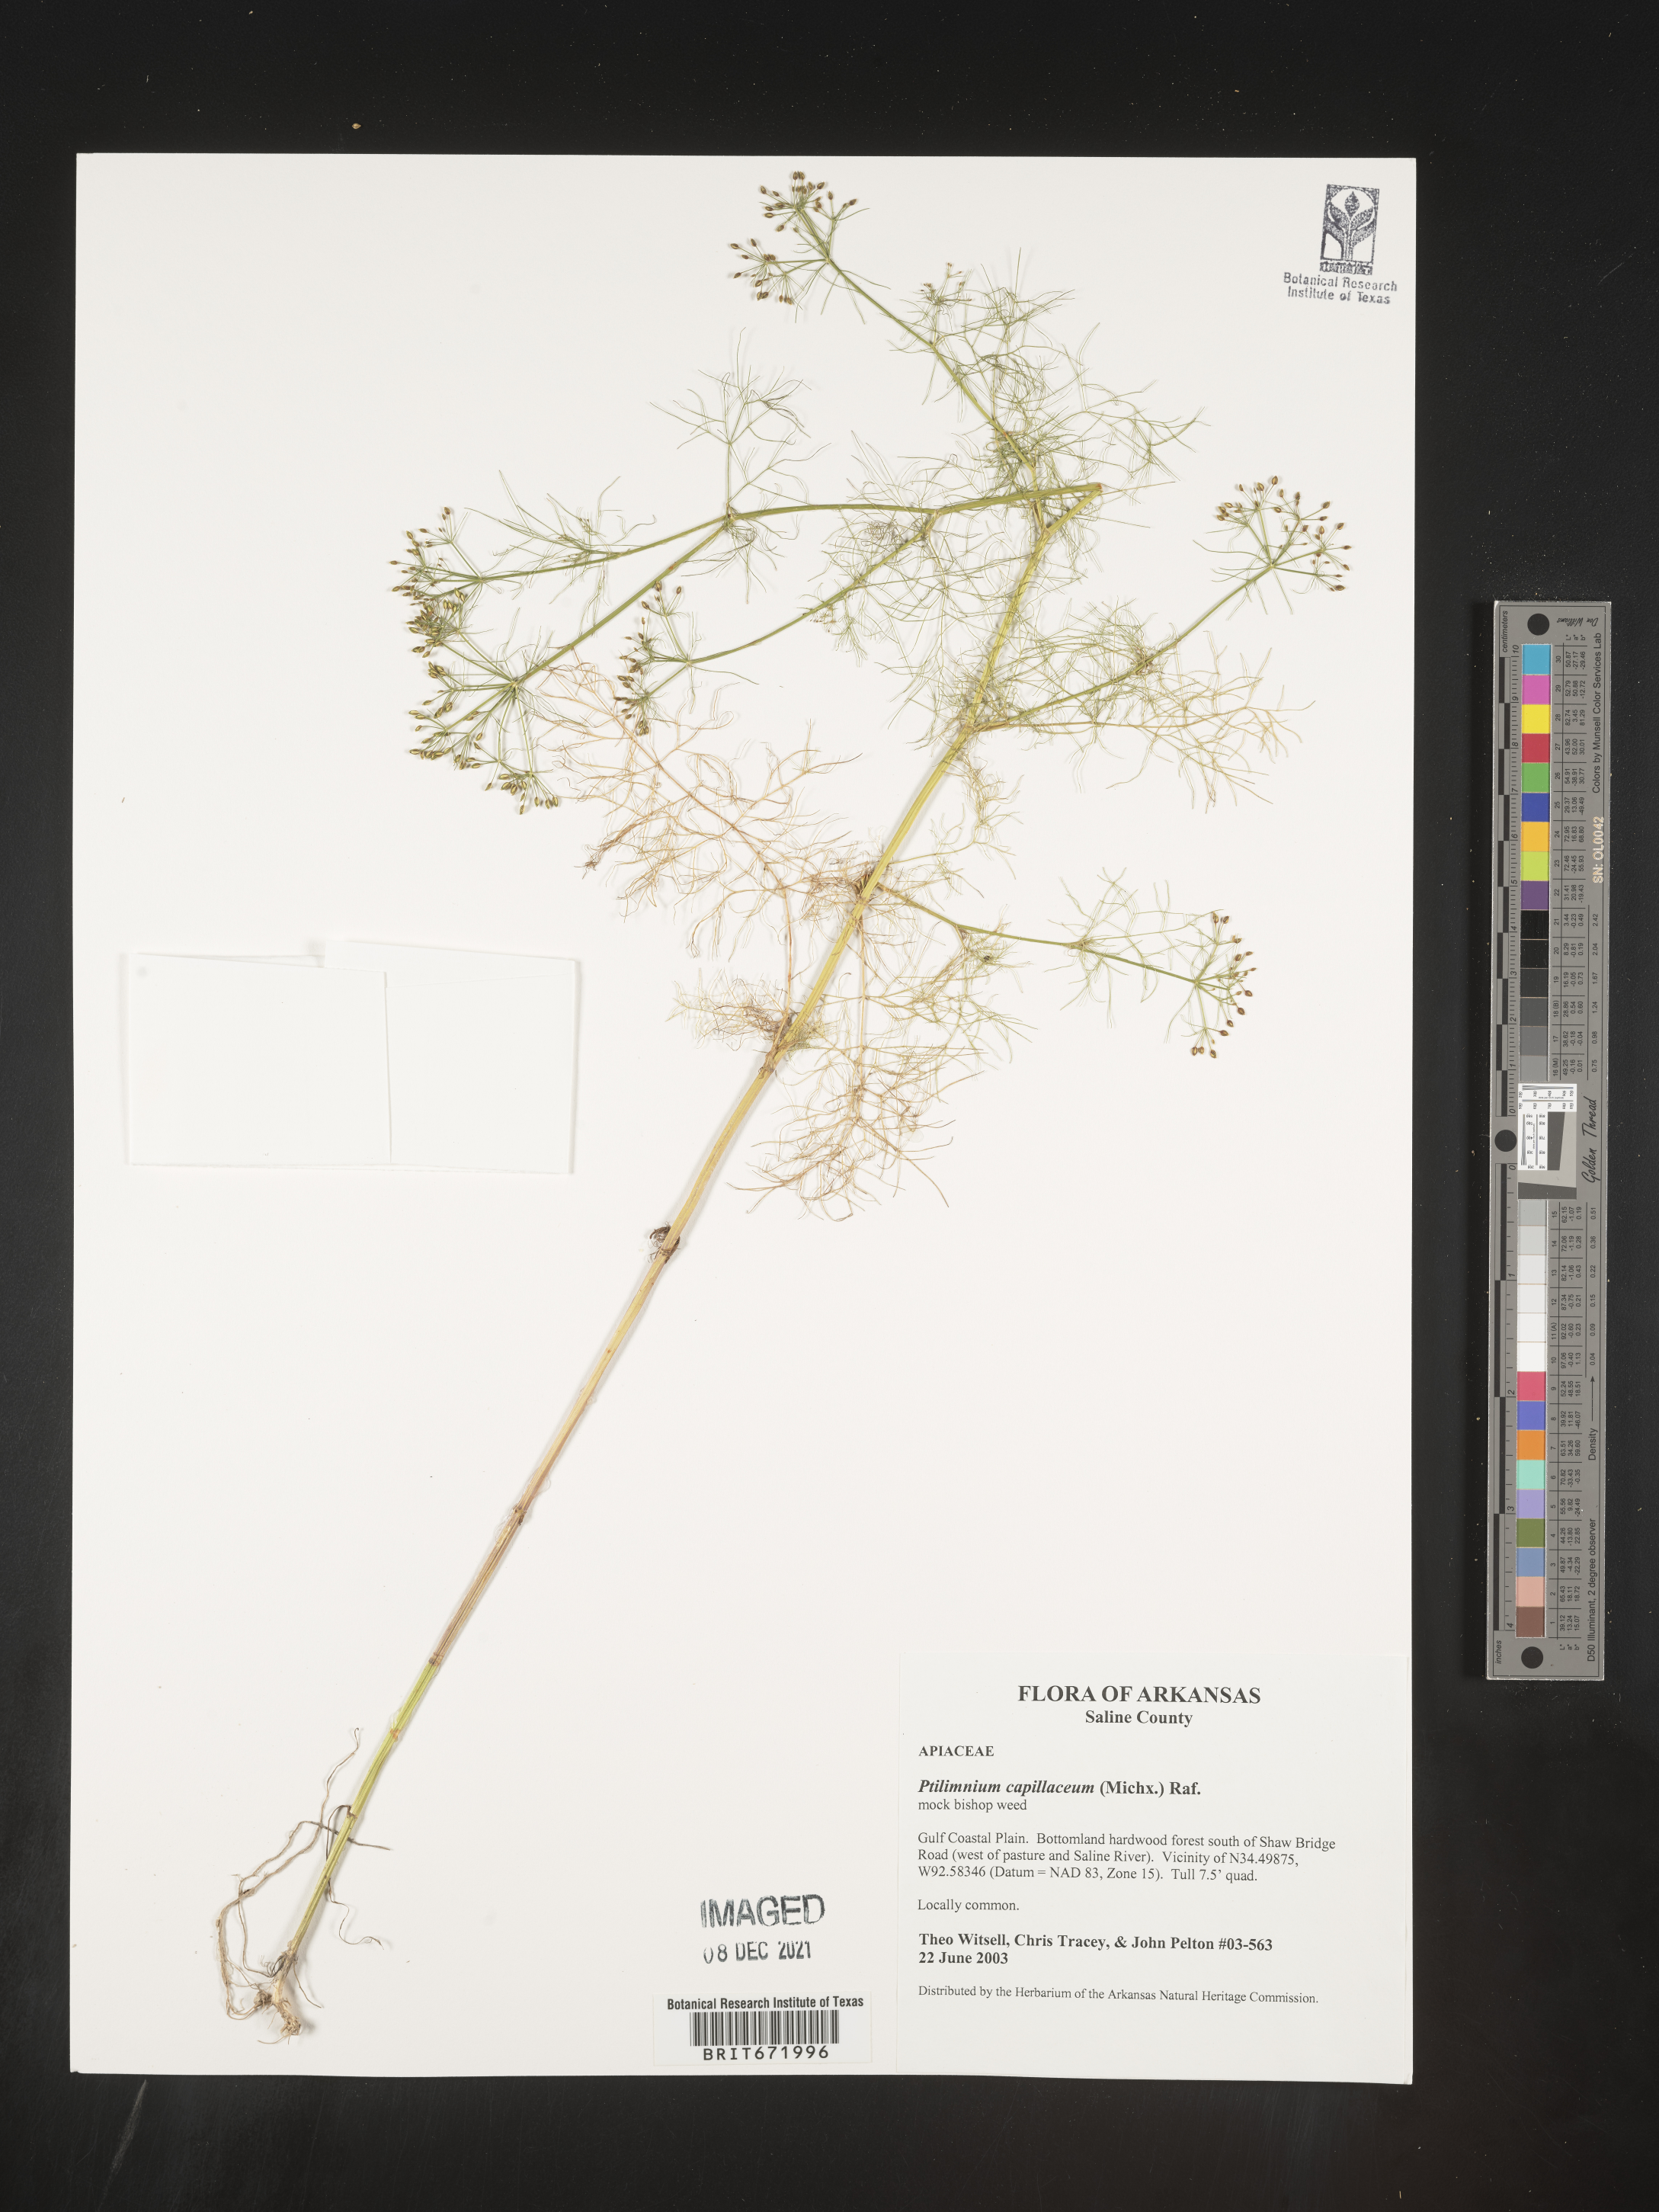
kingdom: Plantae
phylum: Tracheophyta
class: Magnoliopsida
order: Apiales
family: Apiaceae
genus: Ptilimnium
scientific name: Ptilimnium capillaceum
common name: Herbwilliam
